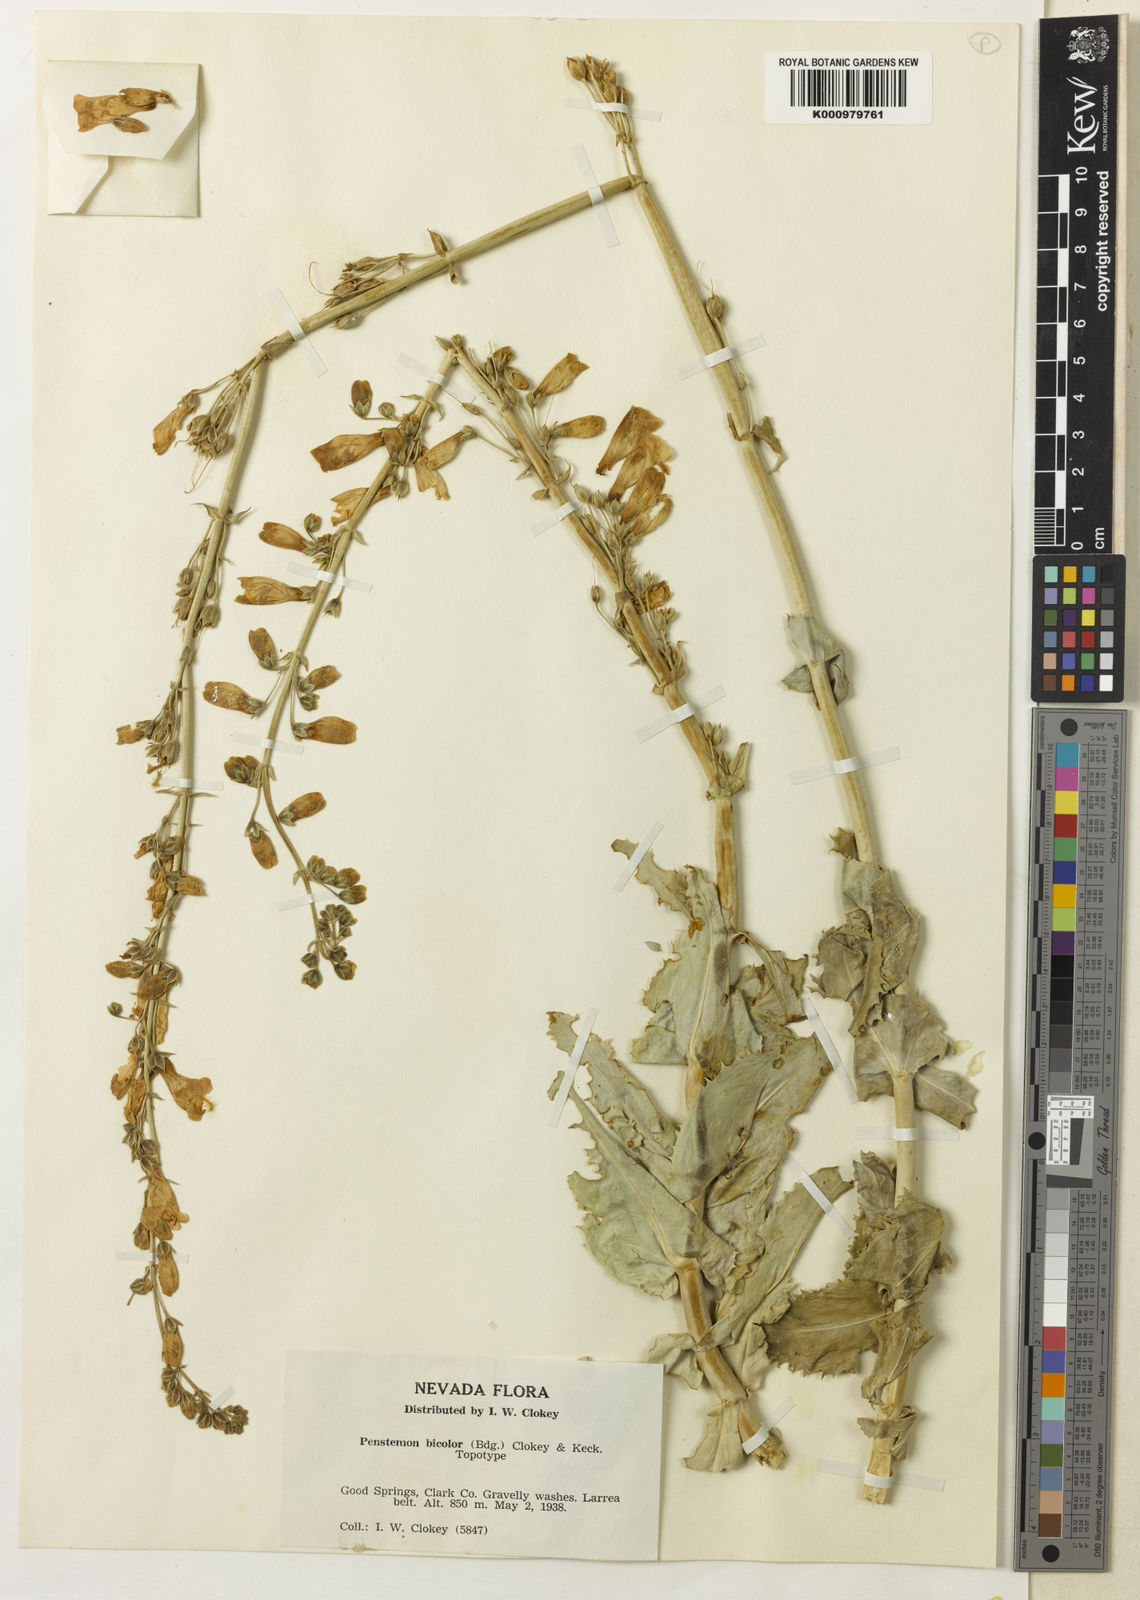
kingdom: Plantae
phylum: Tracheophyta
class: Magnoliopsida
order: Lamiales
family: Plantaginaceae
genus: Penstemon
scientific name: Penstemon
